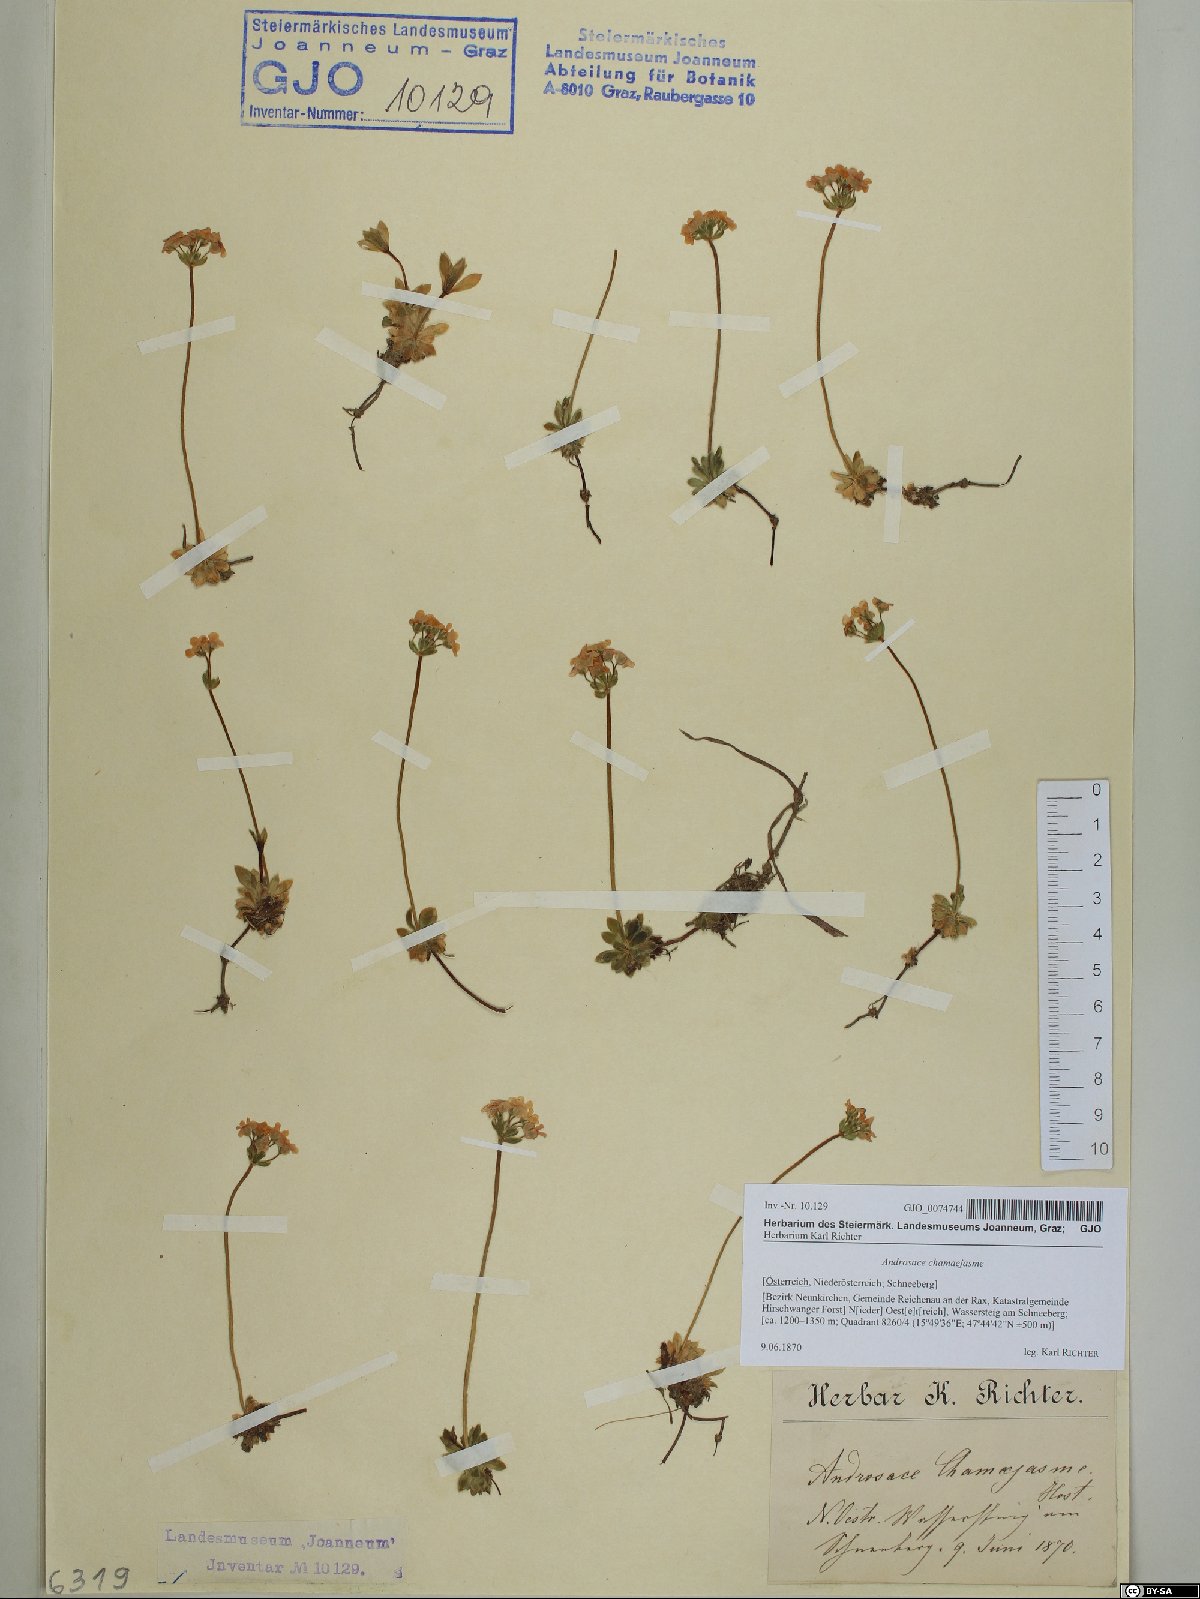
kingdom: Plantae
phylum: Tracheophyta
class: Magnoliopsida
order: Ericales
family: Primulaceae
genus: Androsace
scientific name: Androsace chamaejasme
